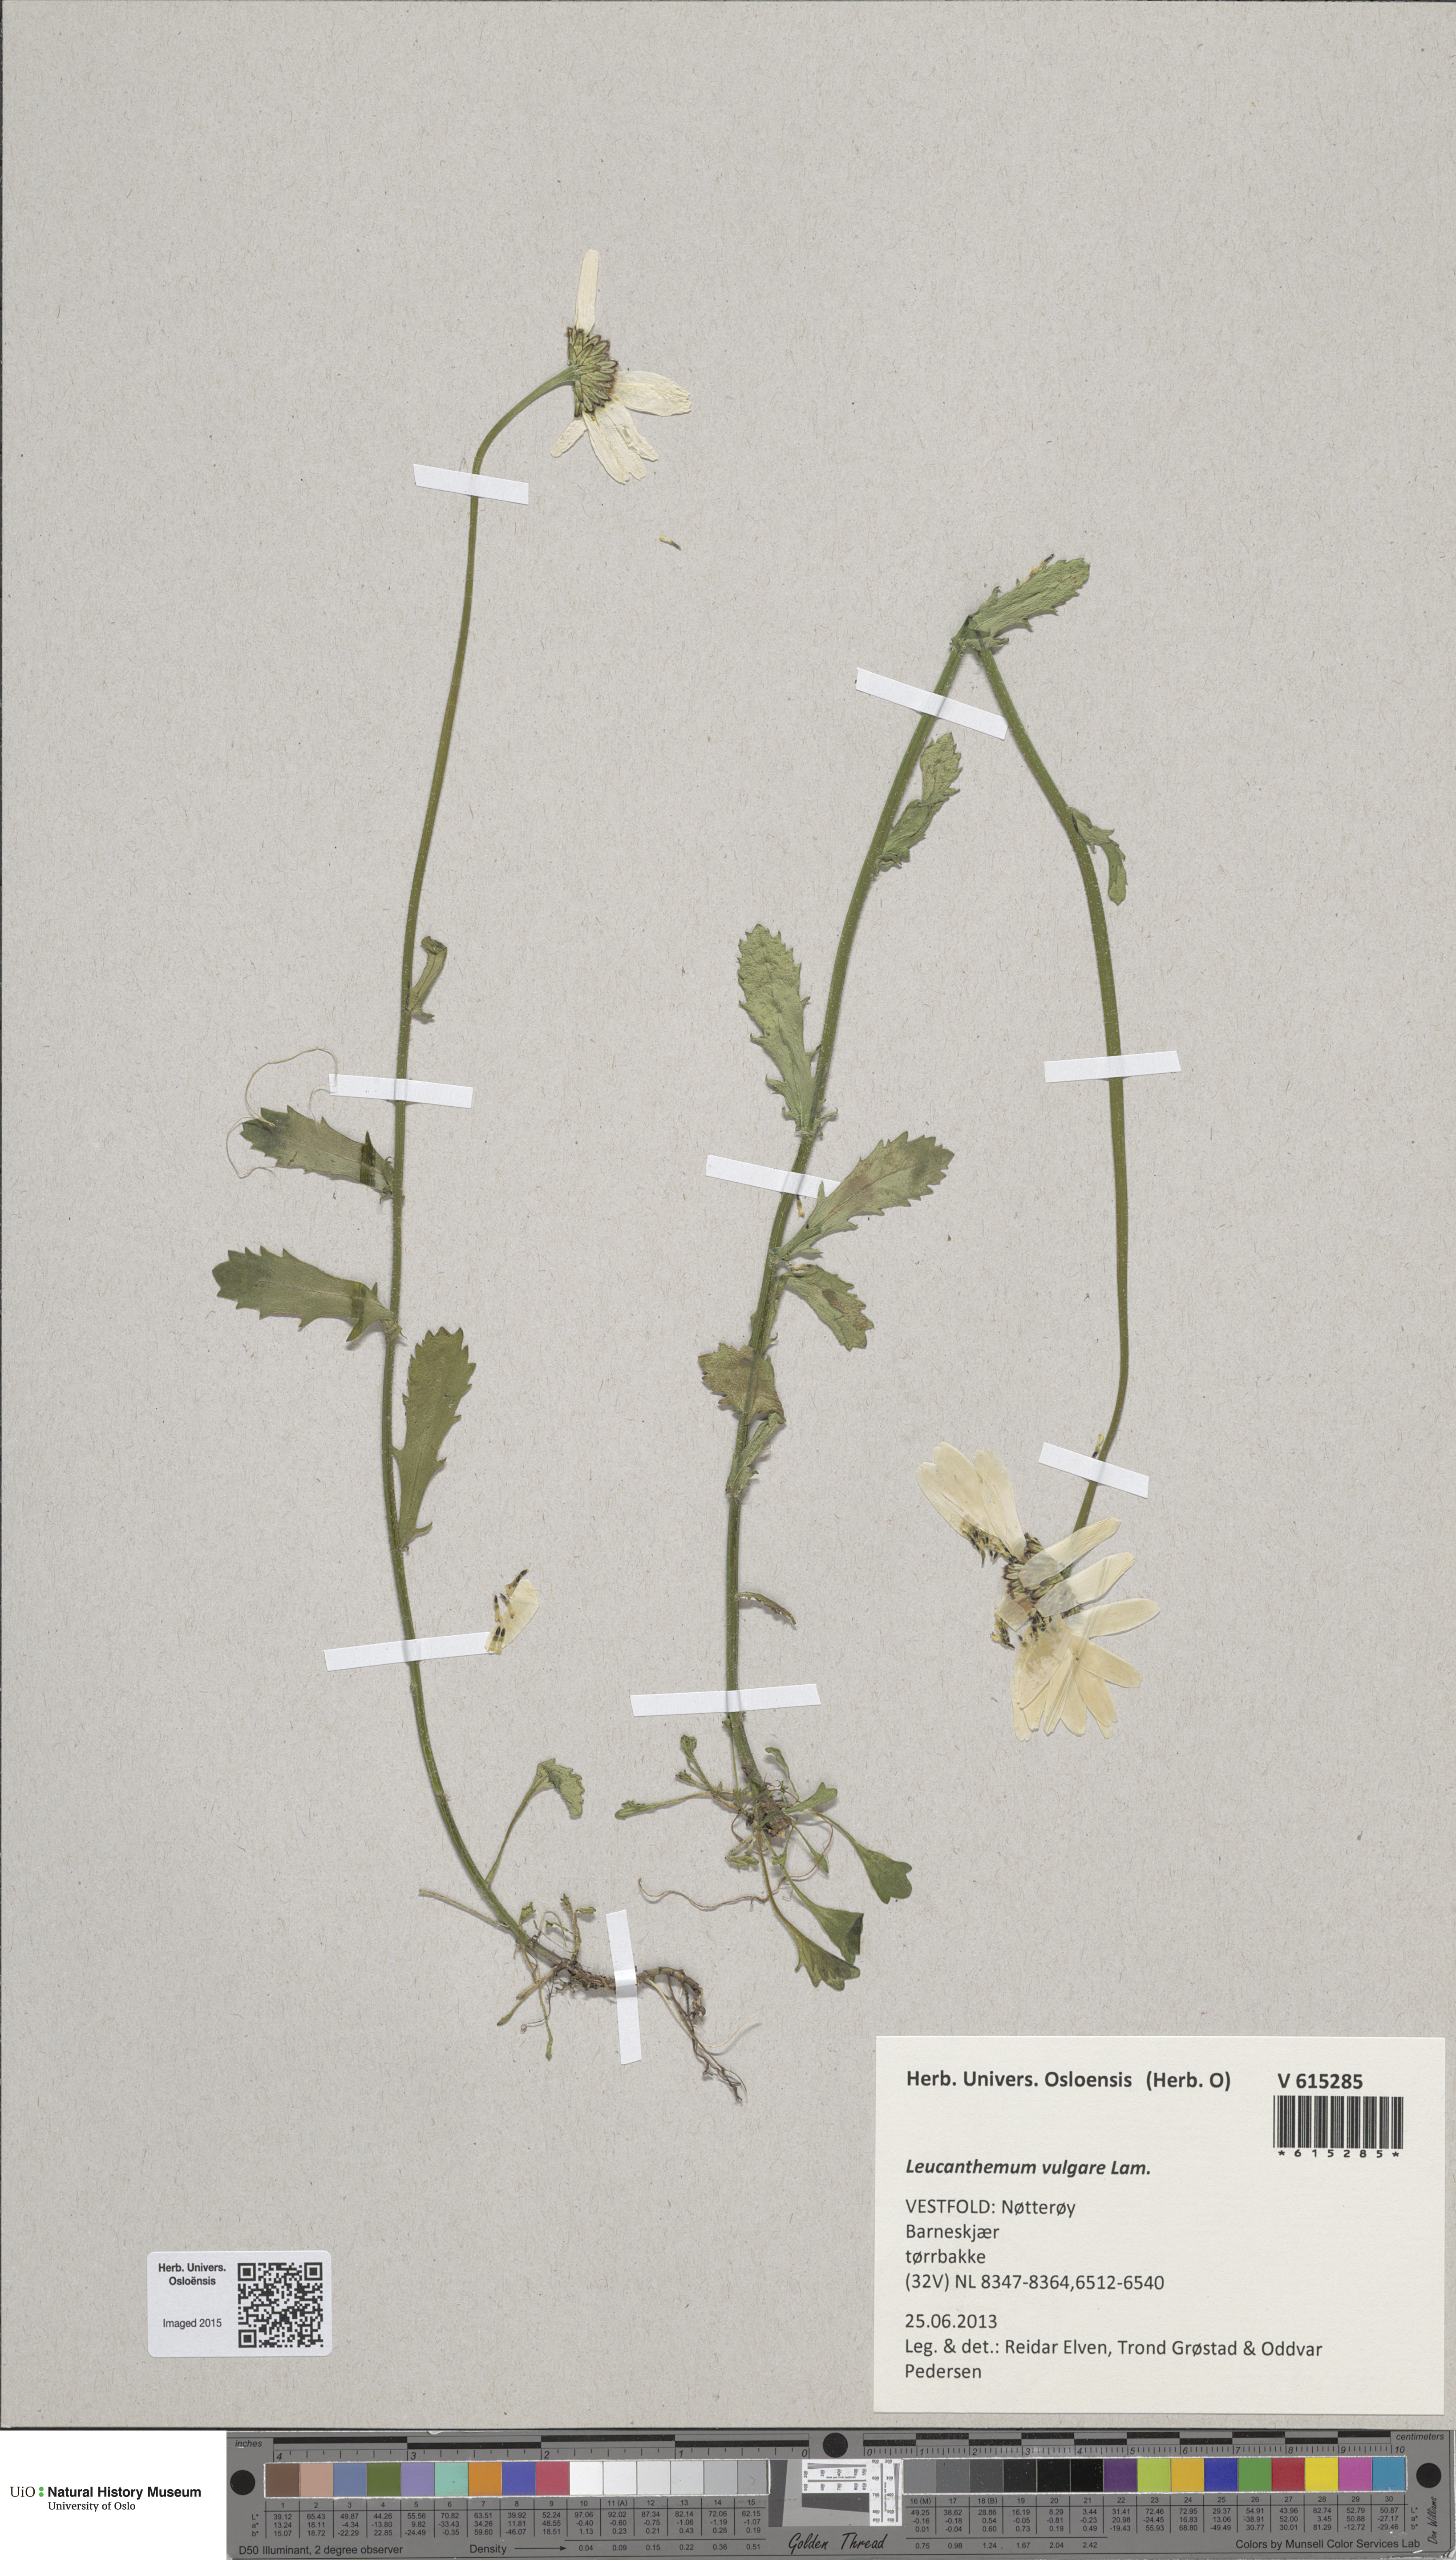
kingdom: Plantae
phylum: Tracheophyta
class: Magnoliopsida
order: Asterales
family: Asteraceae
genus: Leucanthemum
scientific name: Leucanthemum vulgare
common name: Oxeye daisy
